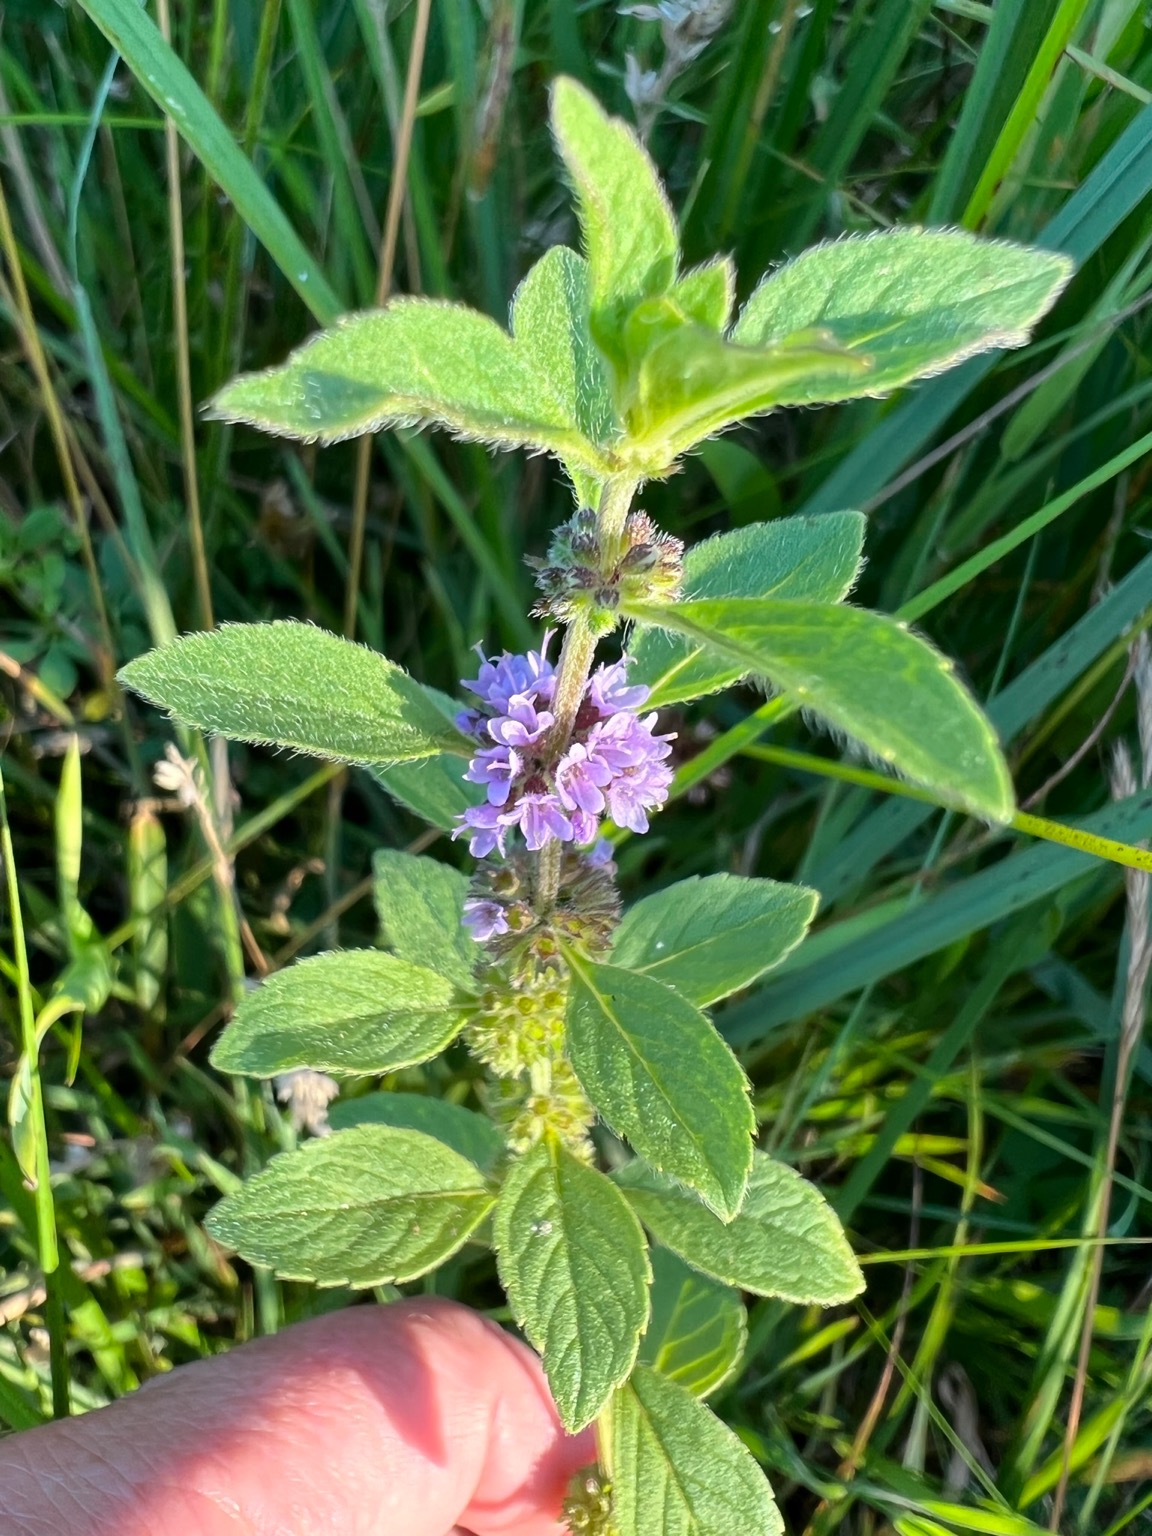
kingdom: Plantae
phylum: Tracheophyta
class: Magnoliopsida
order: Lamiales
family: Lamiaceae
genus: Mentha
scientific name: Mentha verticillata
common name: Krans-mynte
